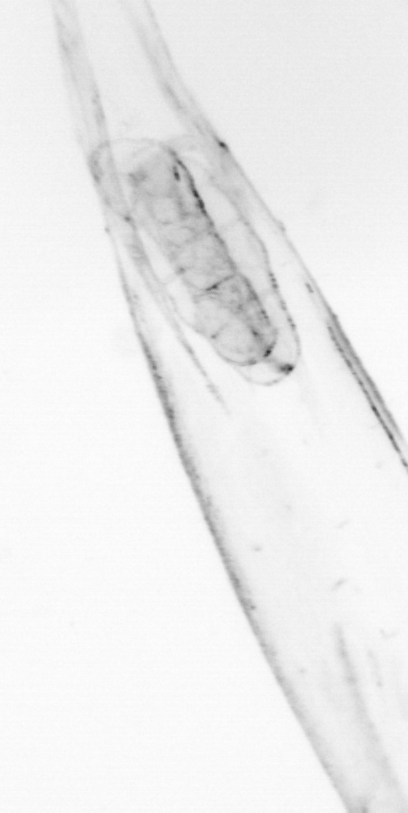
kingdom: Animalia
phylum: Chaetognatha
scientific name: Chaetognatha
